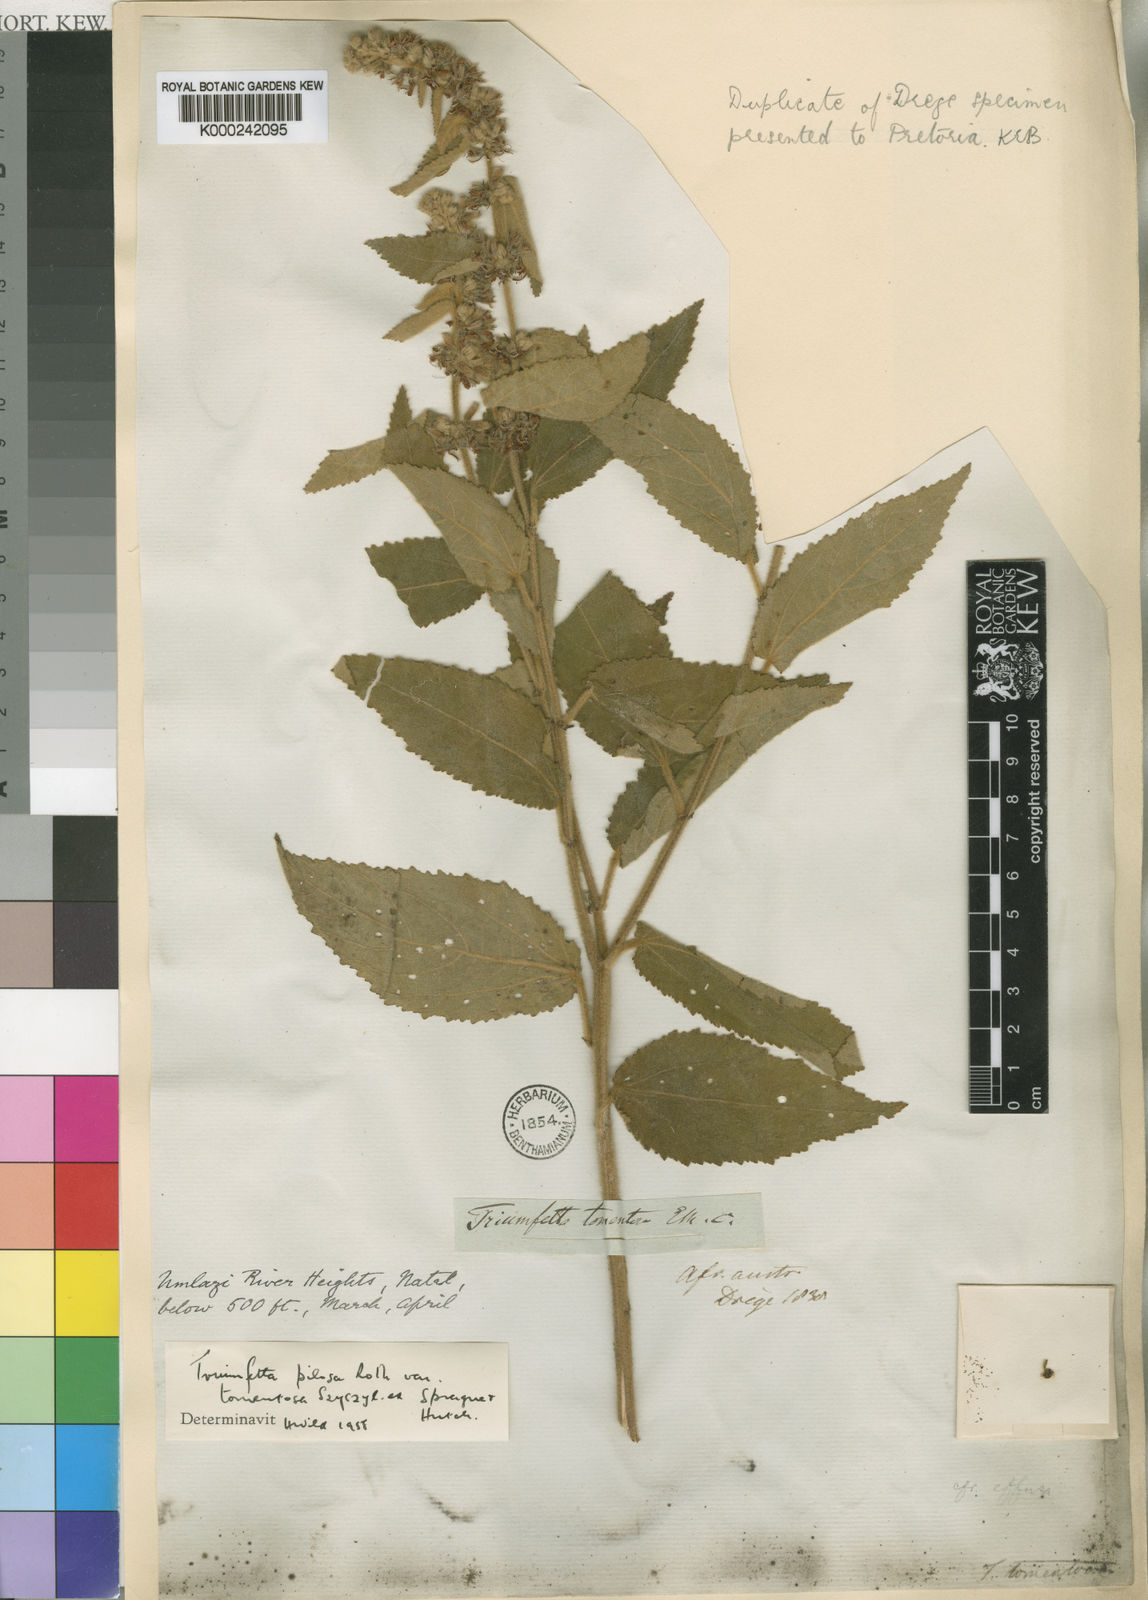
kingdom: Plantae
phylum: Tracheophyta
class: Magnoliopsida
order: Malvales
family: Malvaceae
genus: Triumfetta
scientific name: Triumfetta pilosa
